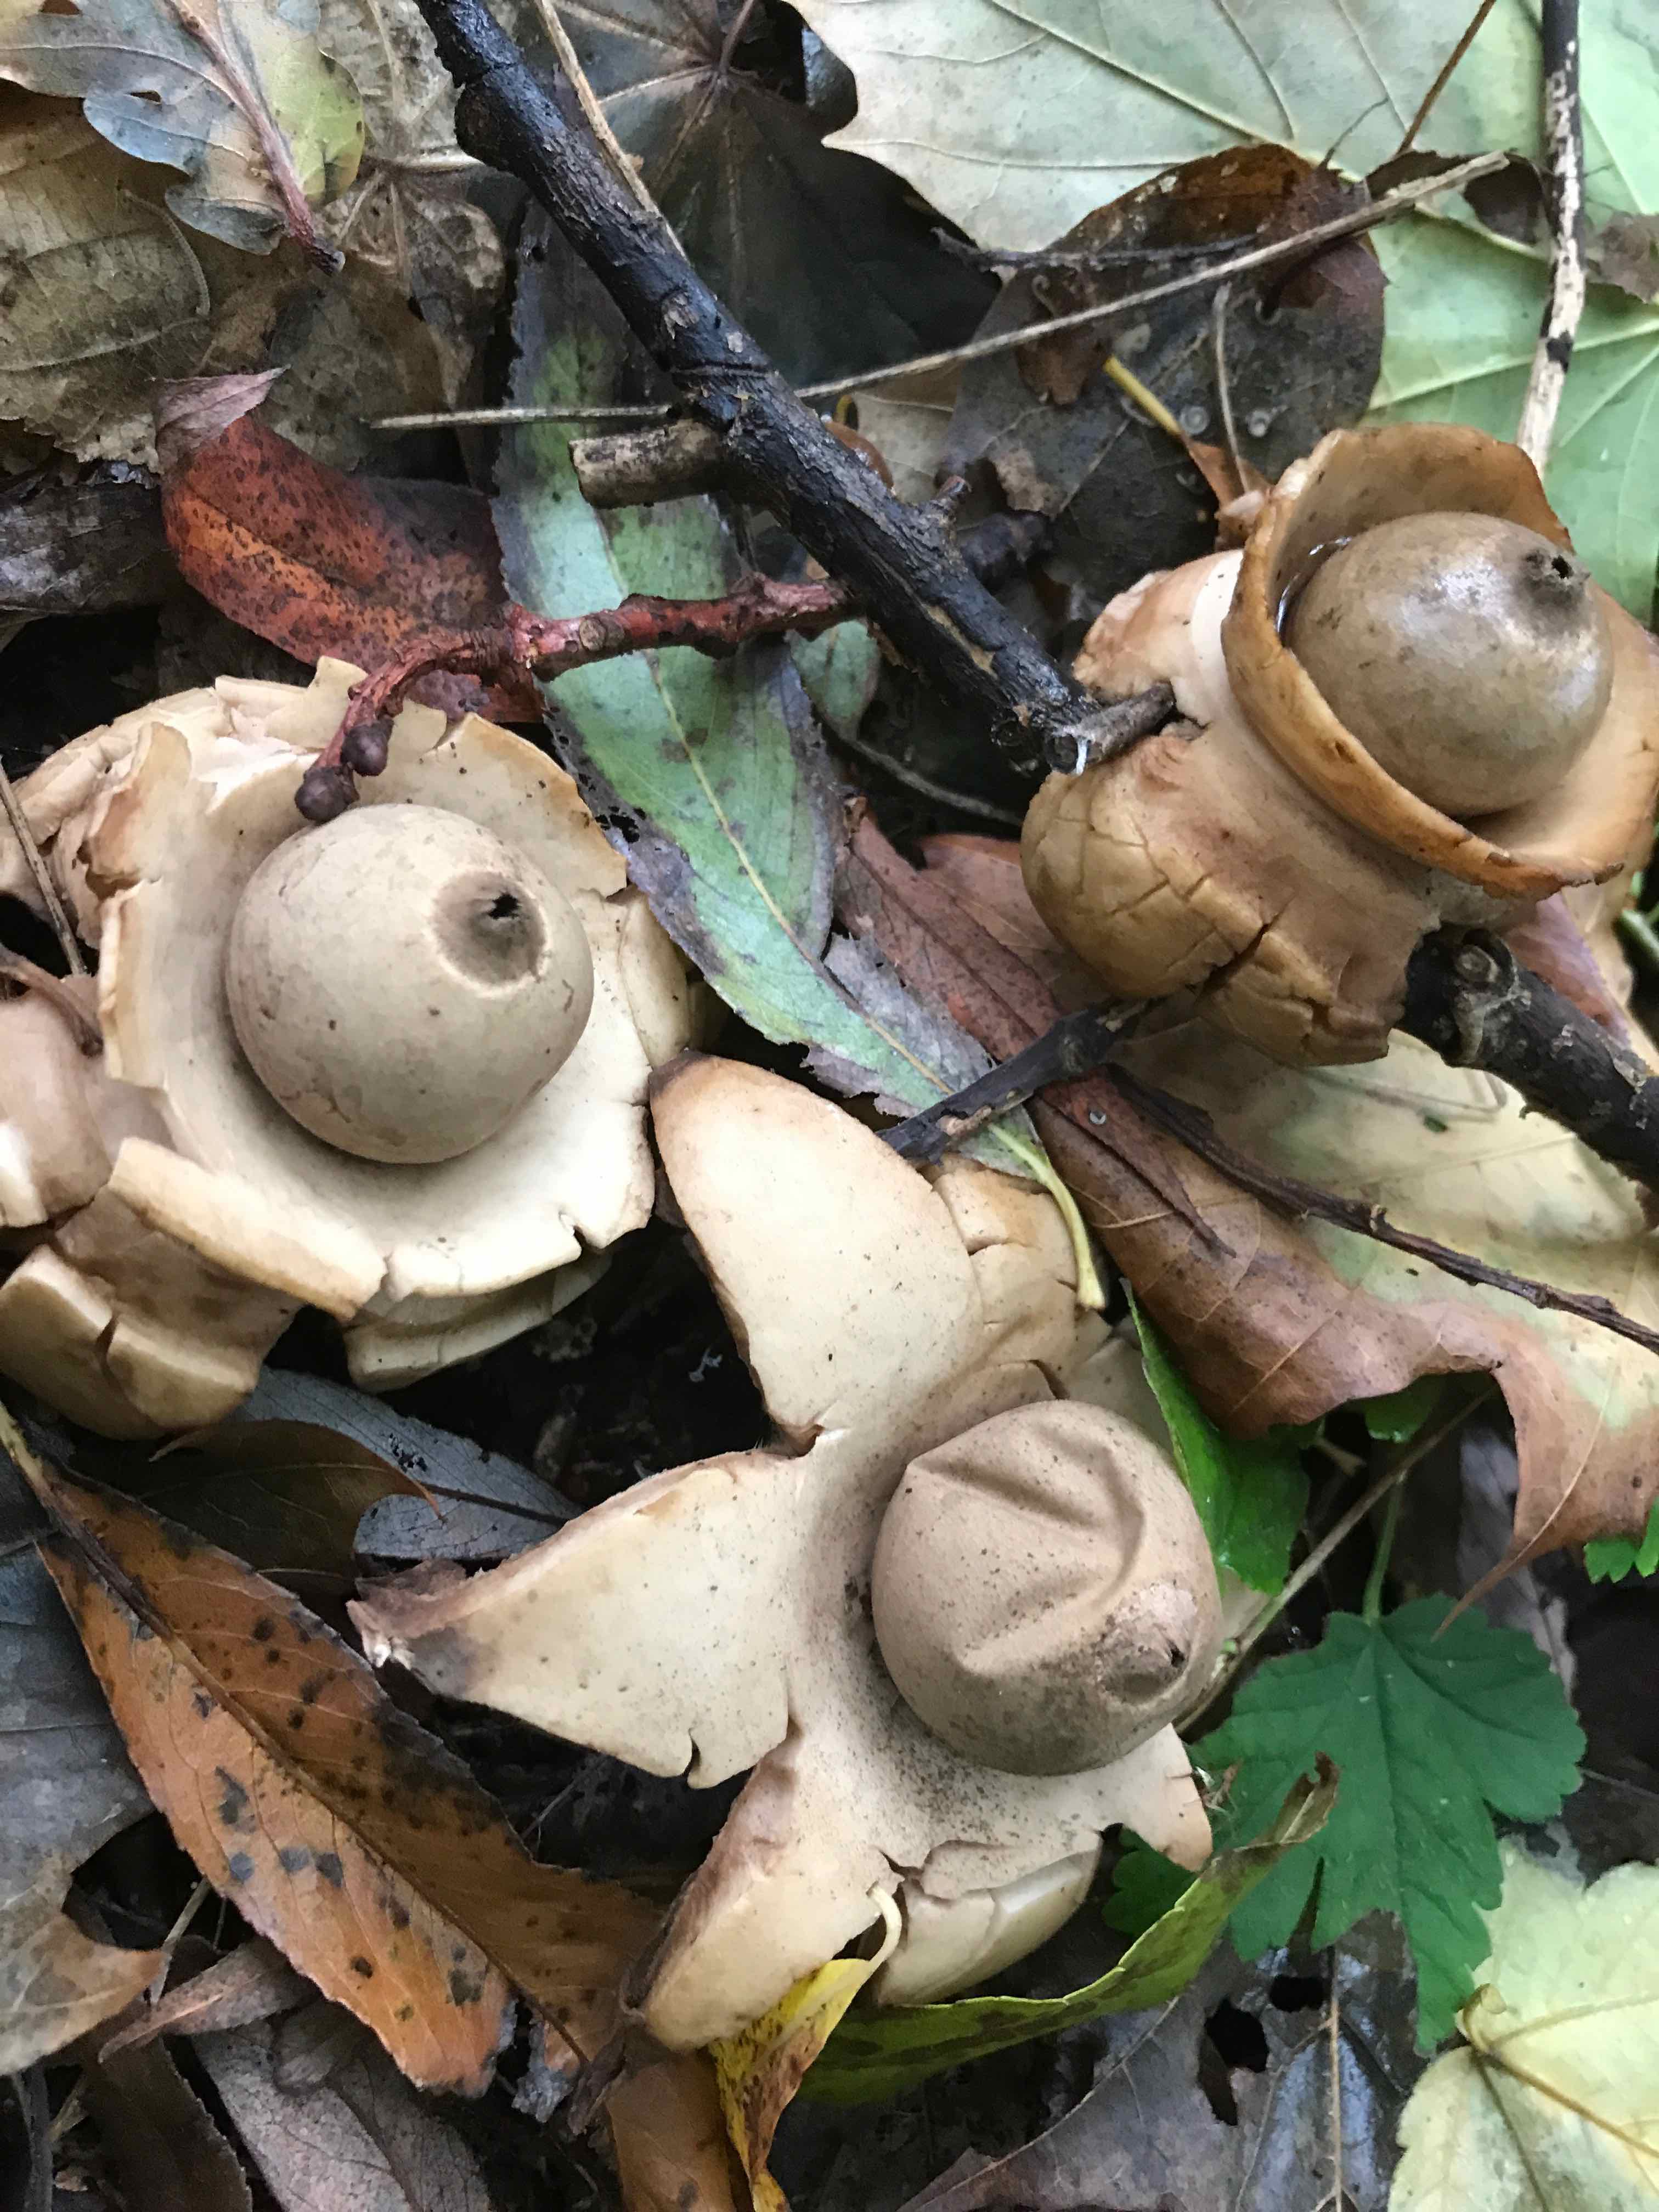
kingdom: Fungi
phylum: Basidiomycota
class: Agaricomycetes
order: Geastrales
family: Geastraceae
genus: Geastrum
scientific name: Geastrum michelianum
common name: kødet stjernebold
